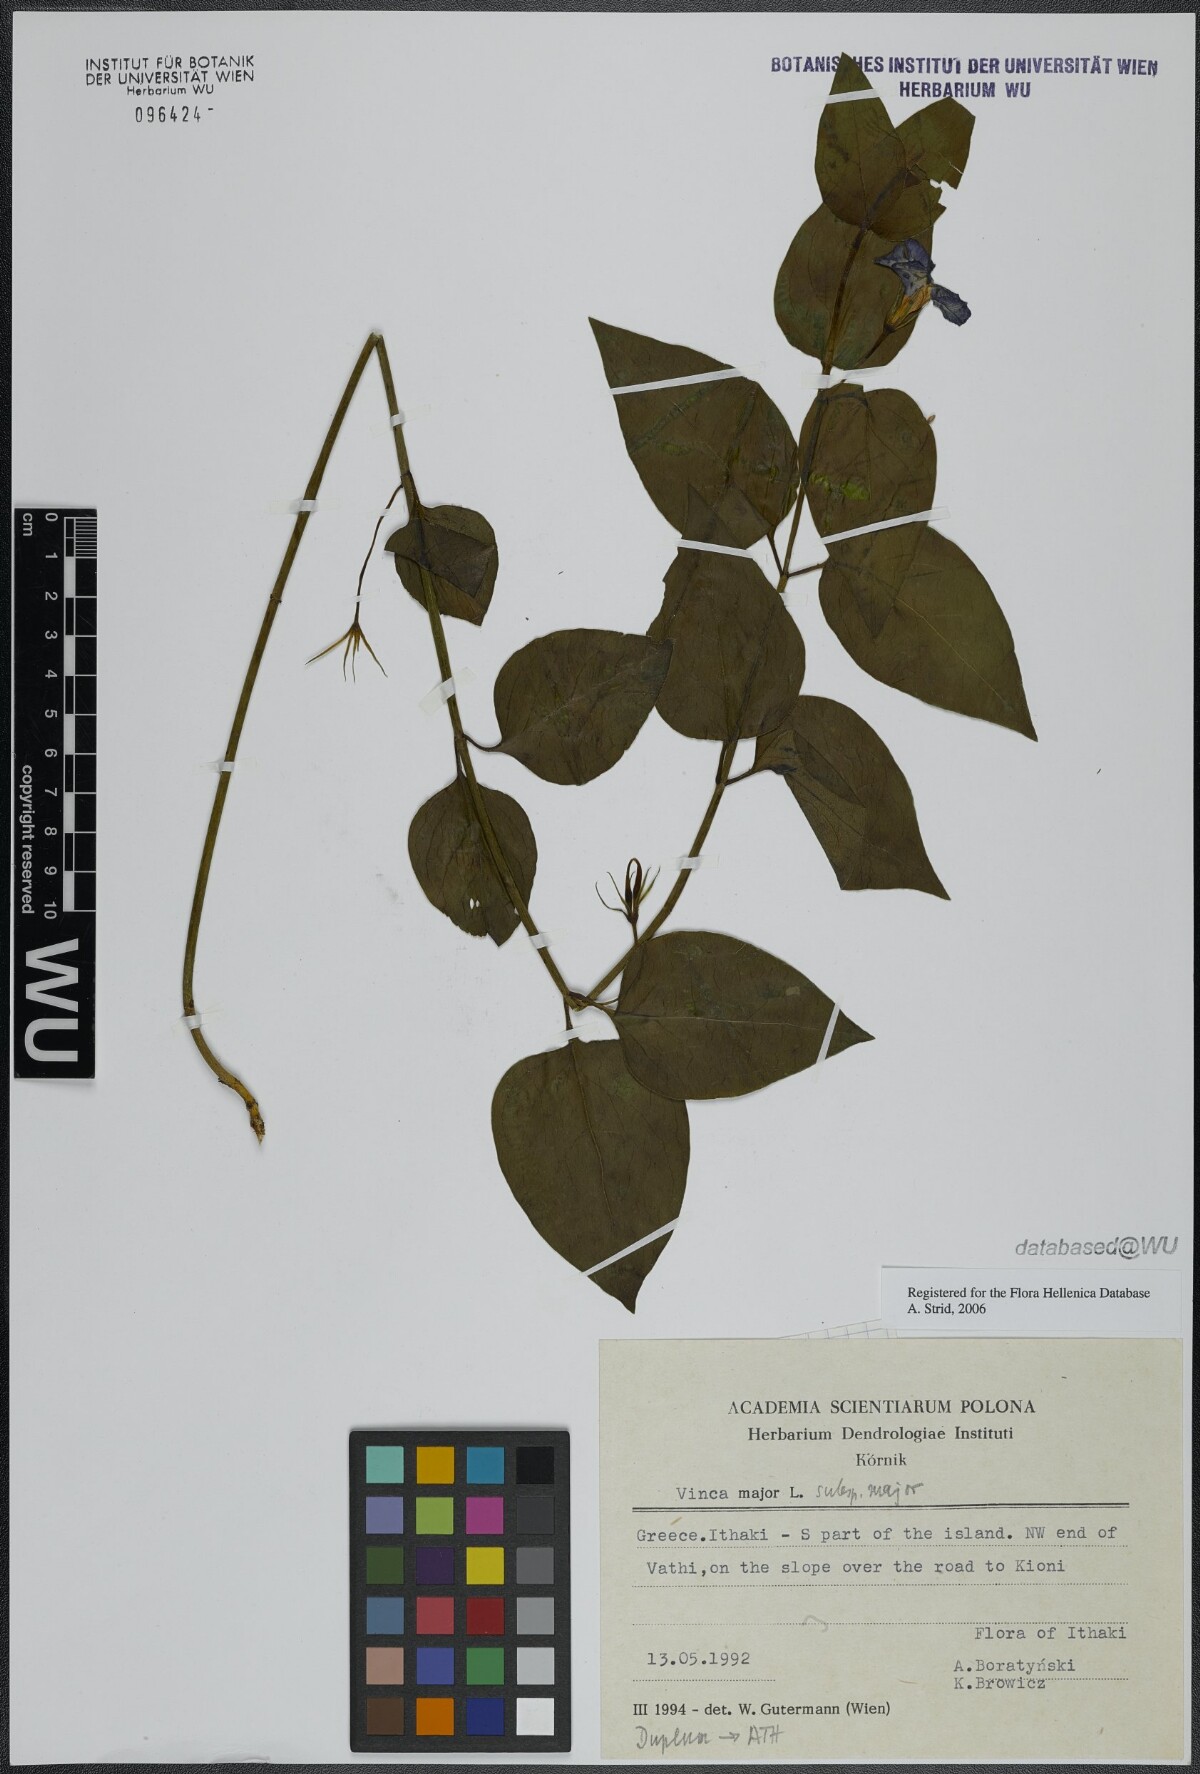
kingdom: Plantae
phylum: Tracheophyta
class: Magnoliopsida
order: Gentianales
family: Apocynaceae
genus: Vinca
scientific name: Vinca major
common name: Greater periwinkle
